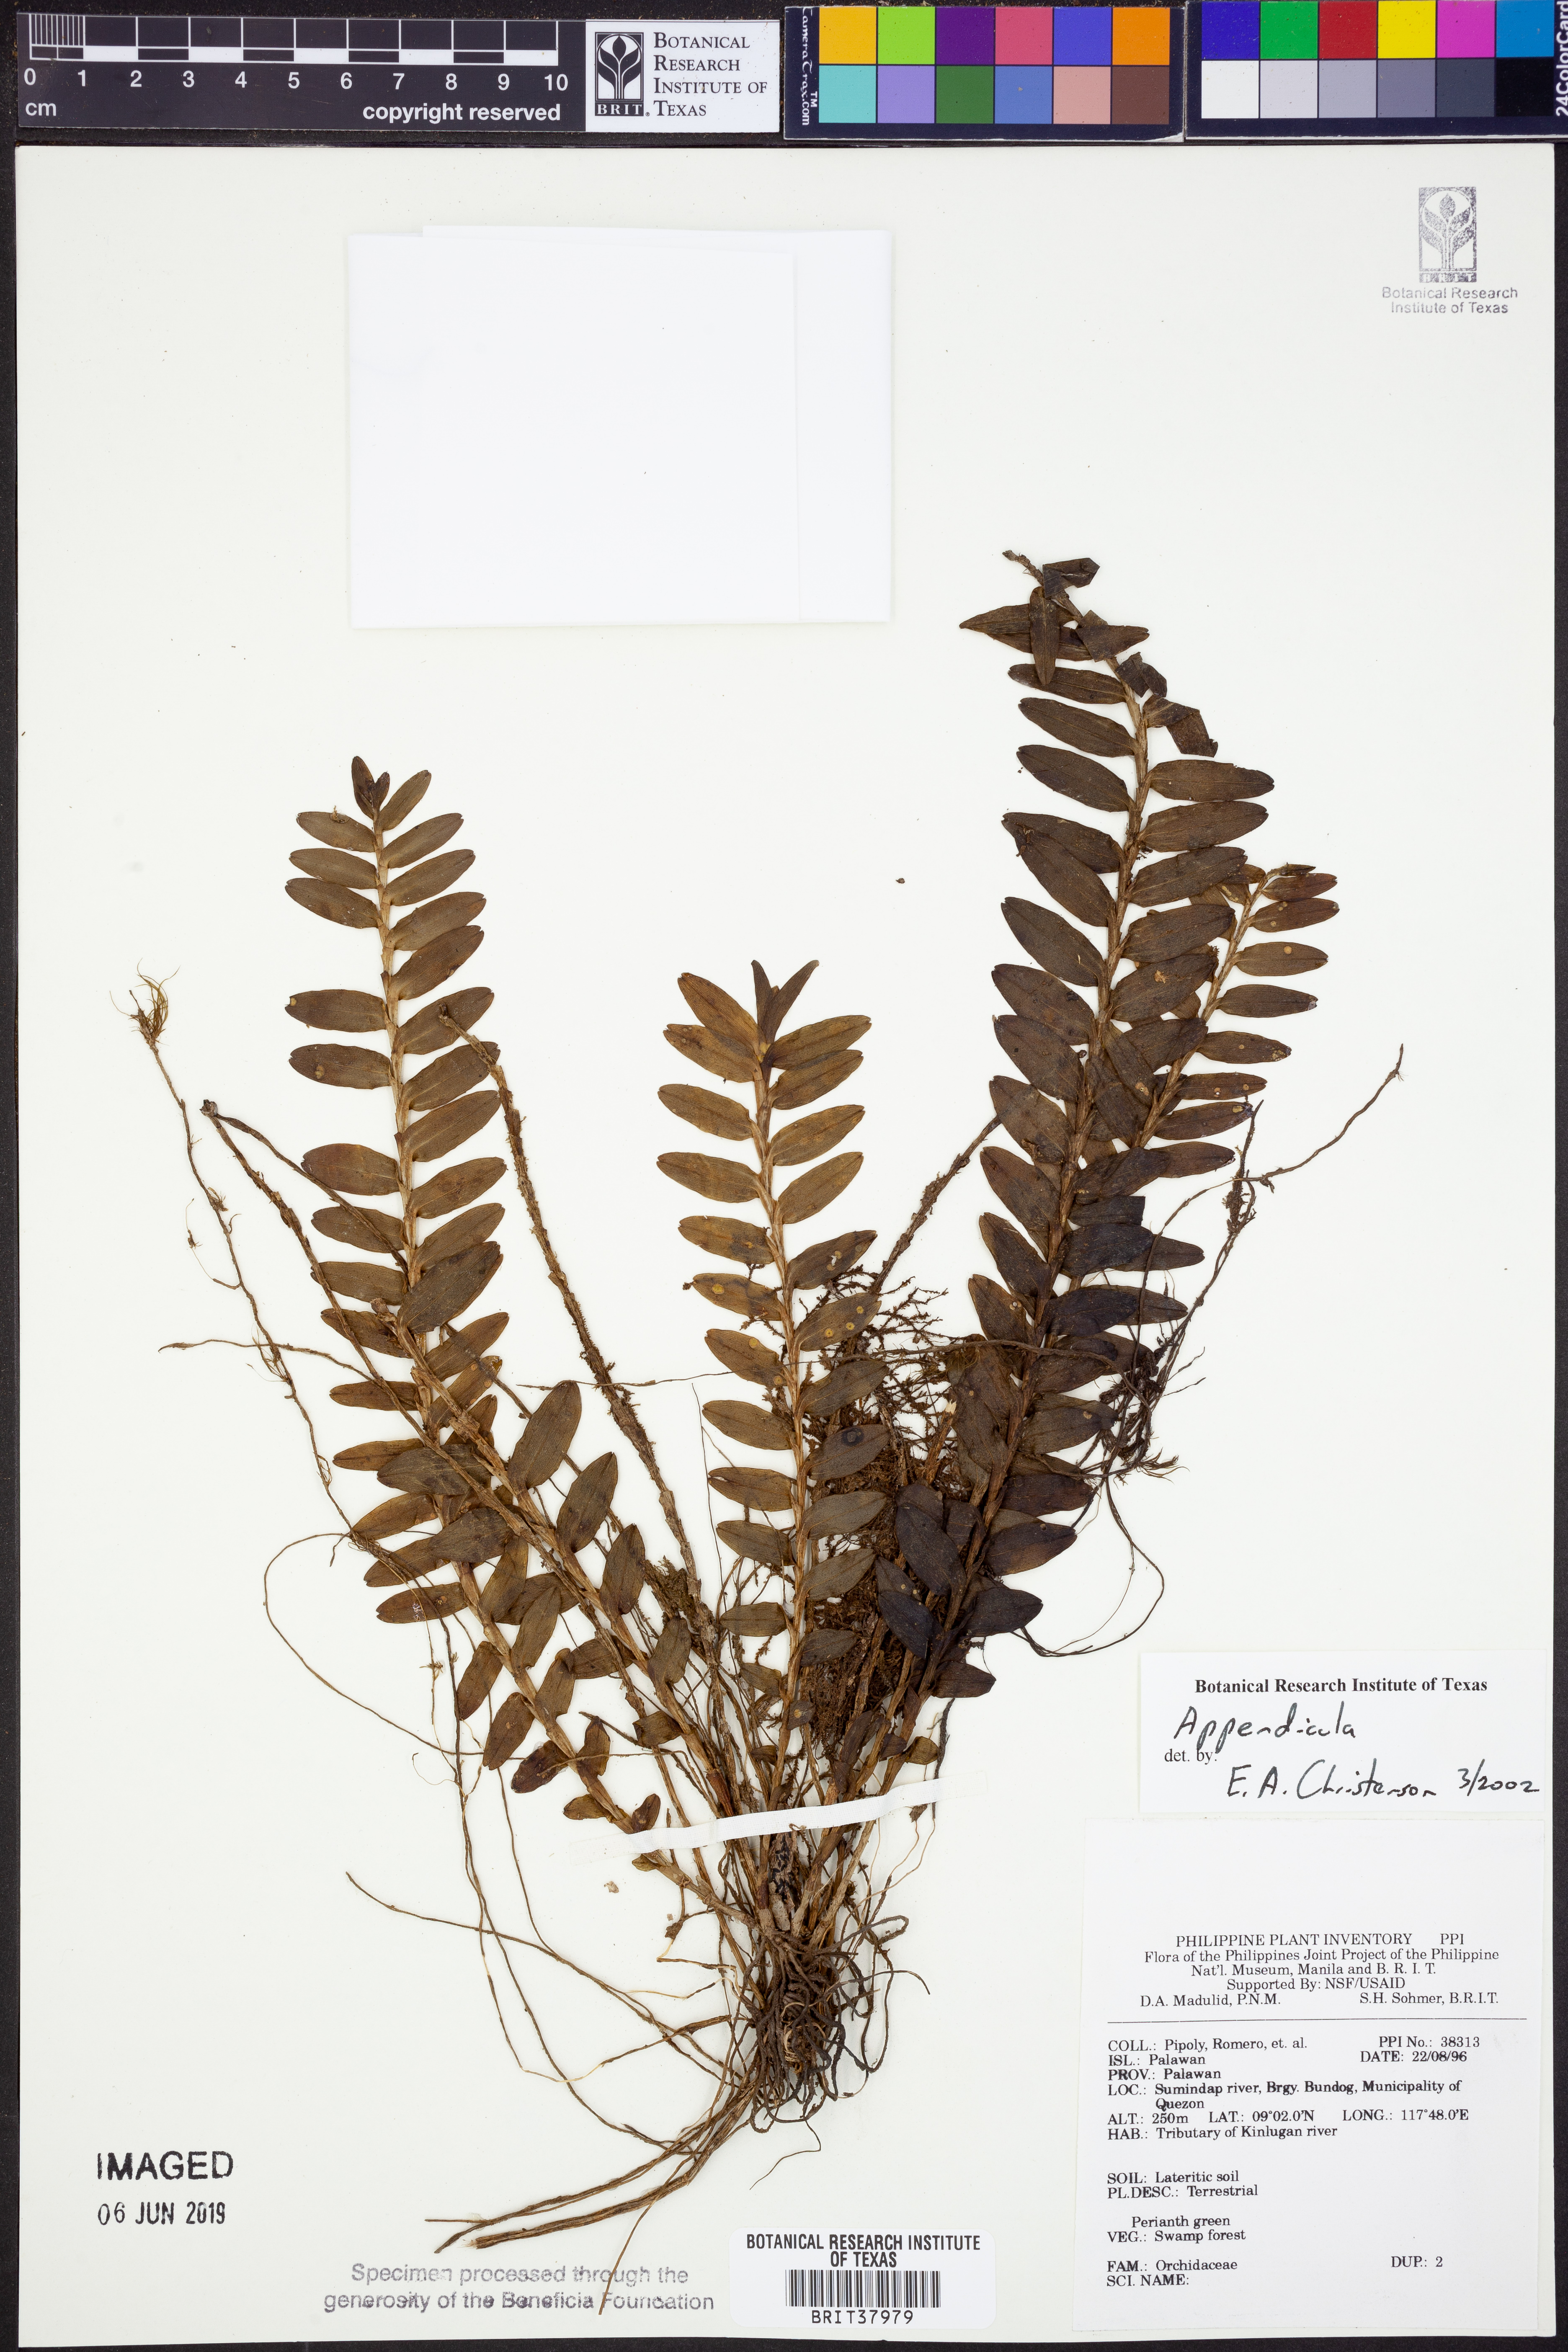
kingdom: Plantae
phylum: Tracheophyta
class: Liliopsida
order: Asparagales
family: Orchidaceae
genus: Appendicula
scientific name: Appendicula
